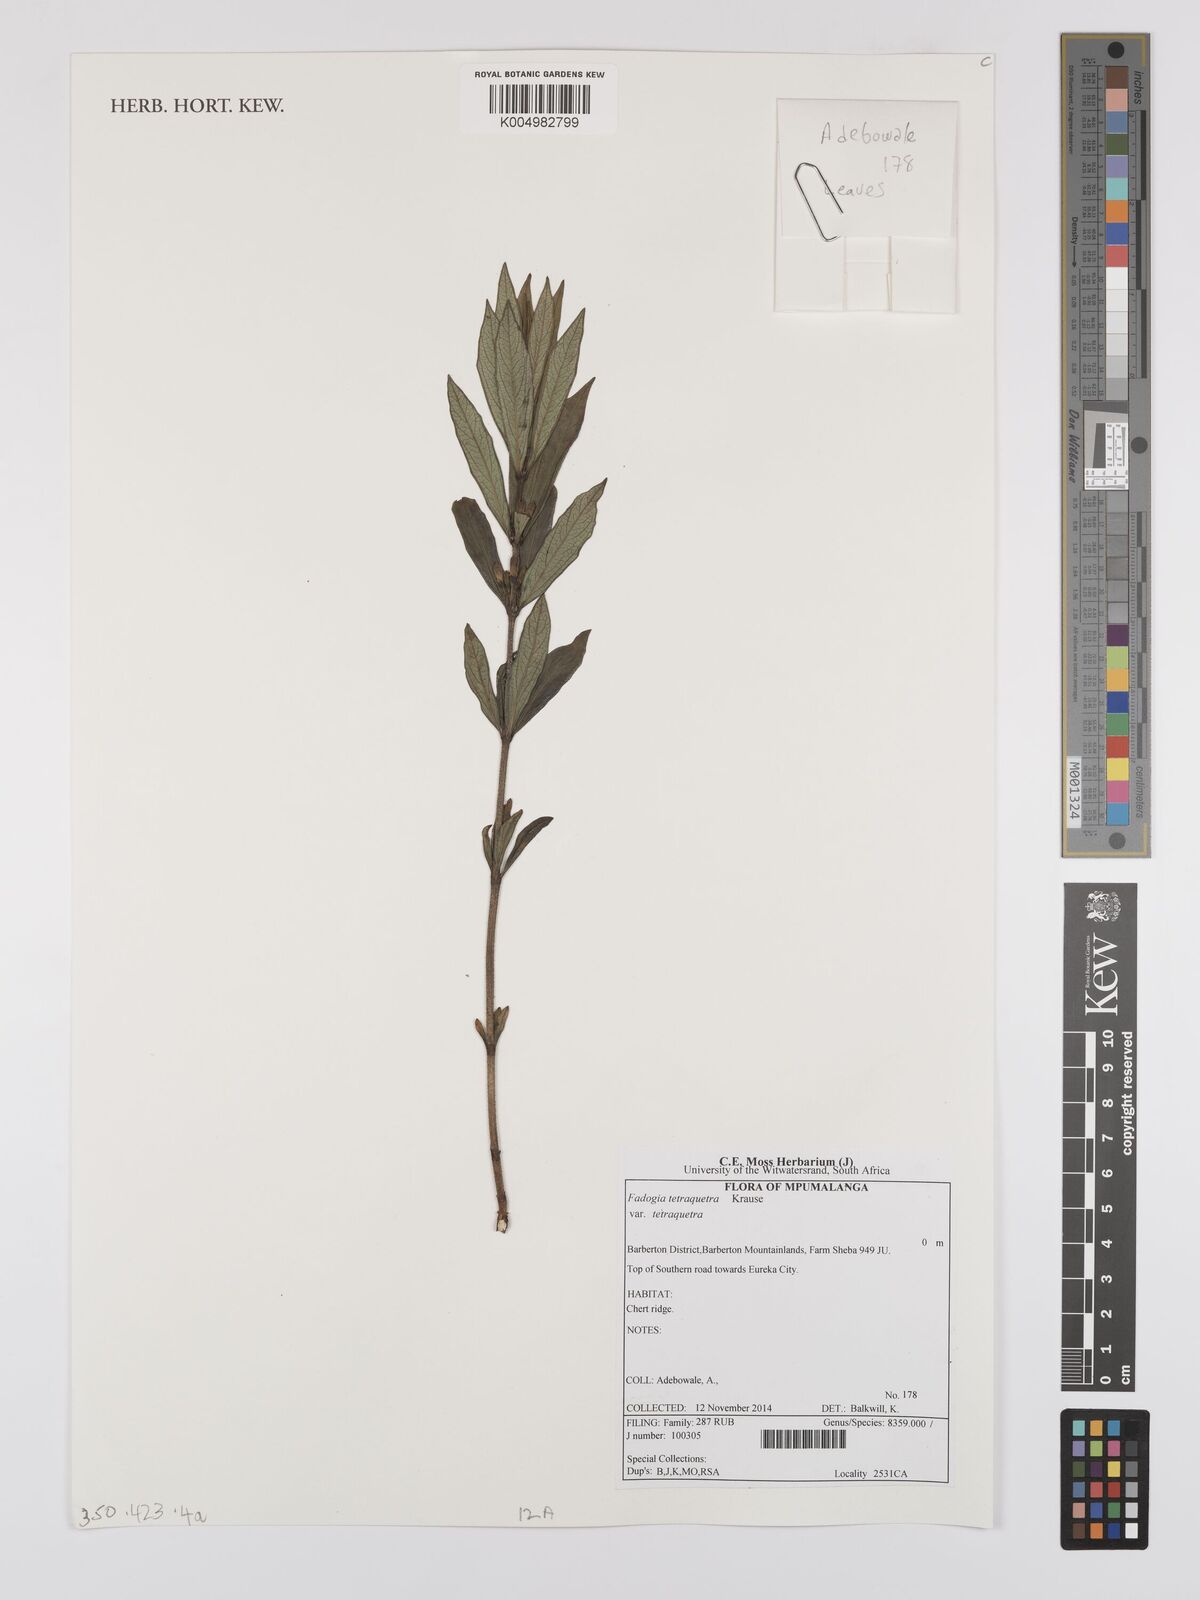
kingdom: Plantae
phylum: Tracheophyta
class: Magnoliopsida
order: Gentianales
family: Rubiaceae
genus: Fadogia
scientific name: Fadogia tetraquetra
